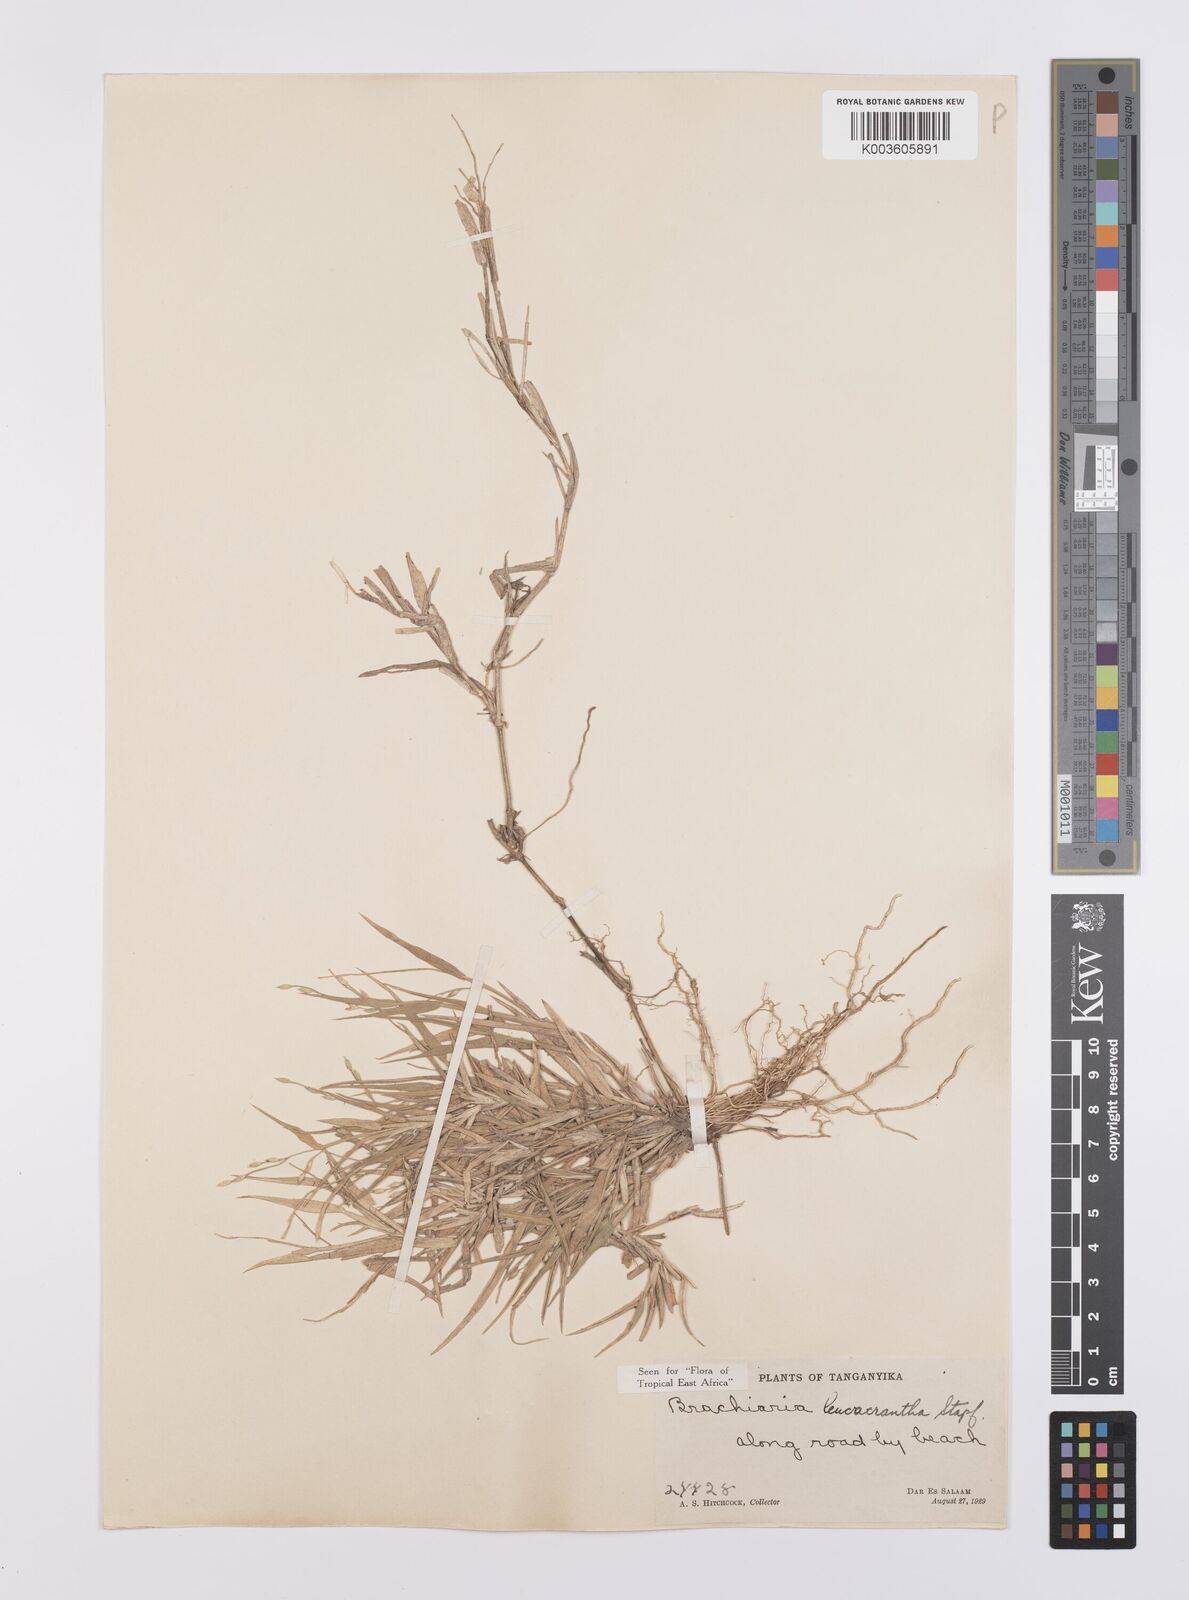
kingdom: Plantae
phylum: Tracheophyta
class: Liliopsida
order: Poales
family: Poaceae
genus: Urochloa
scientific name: Urochloa xantholeuca
